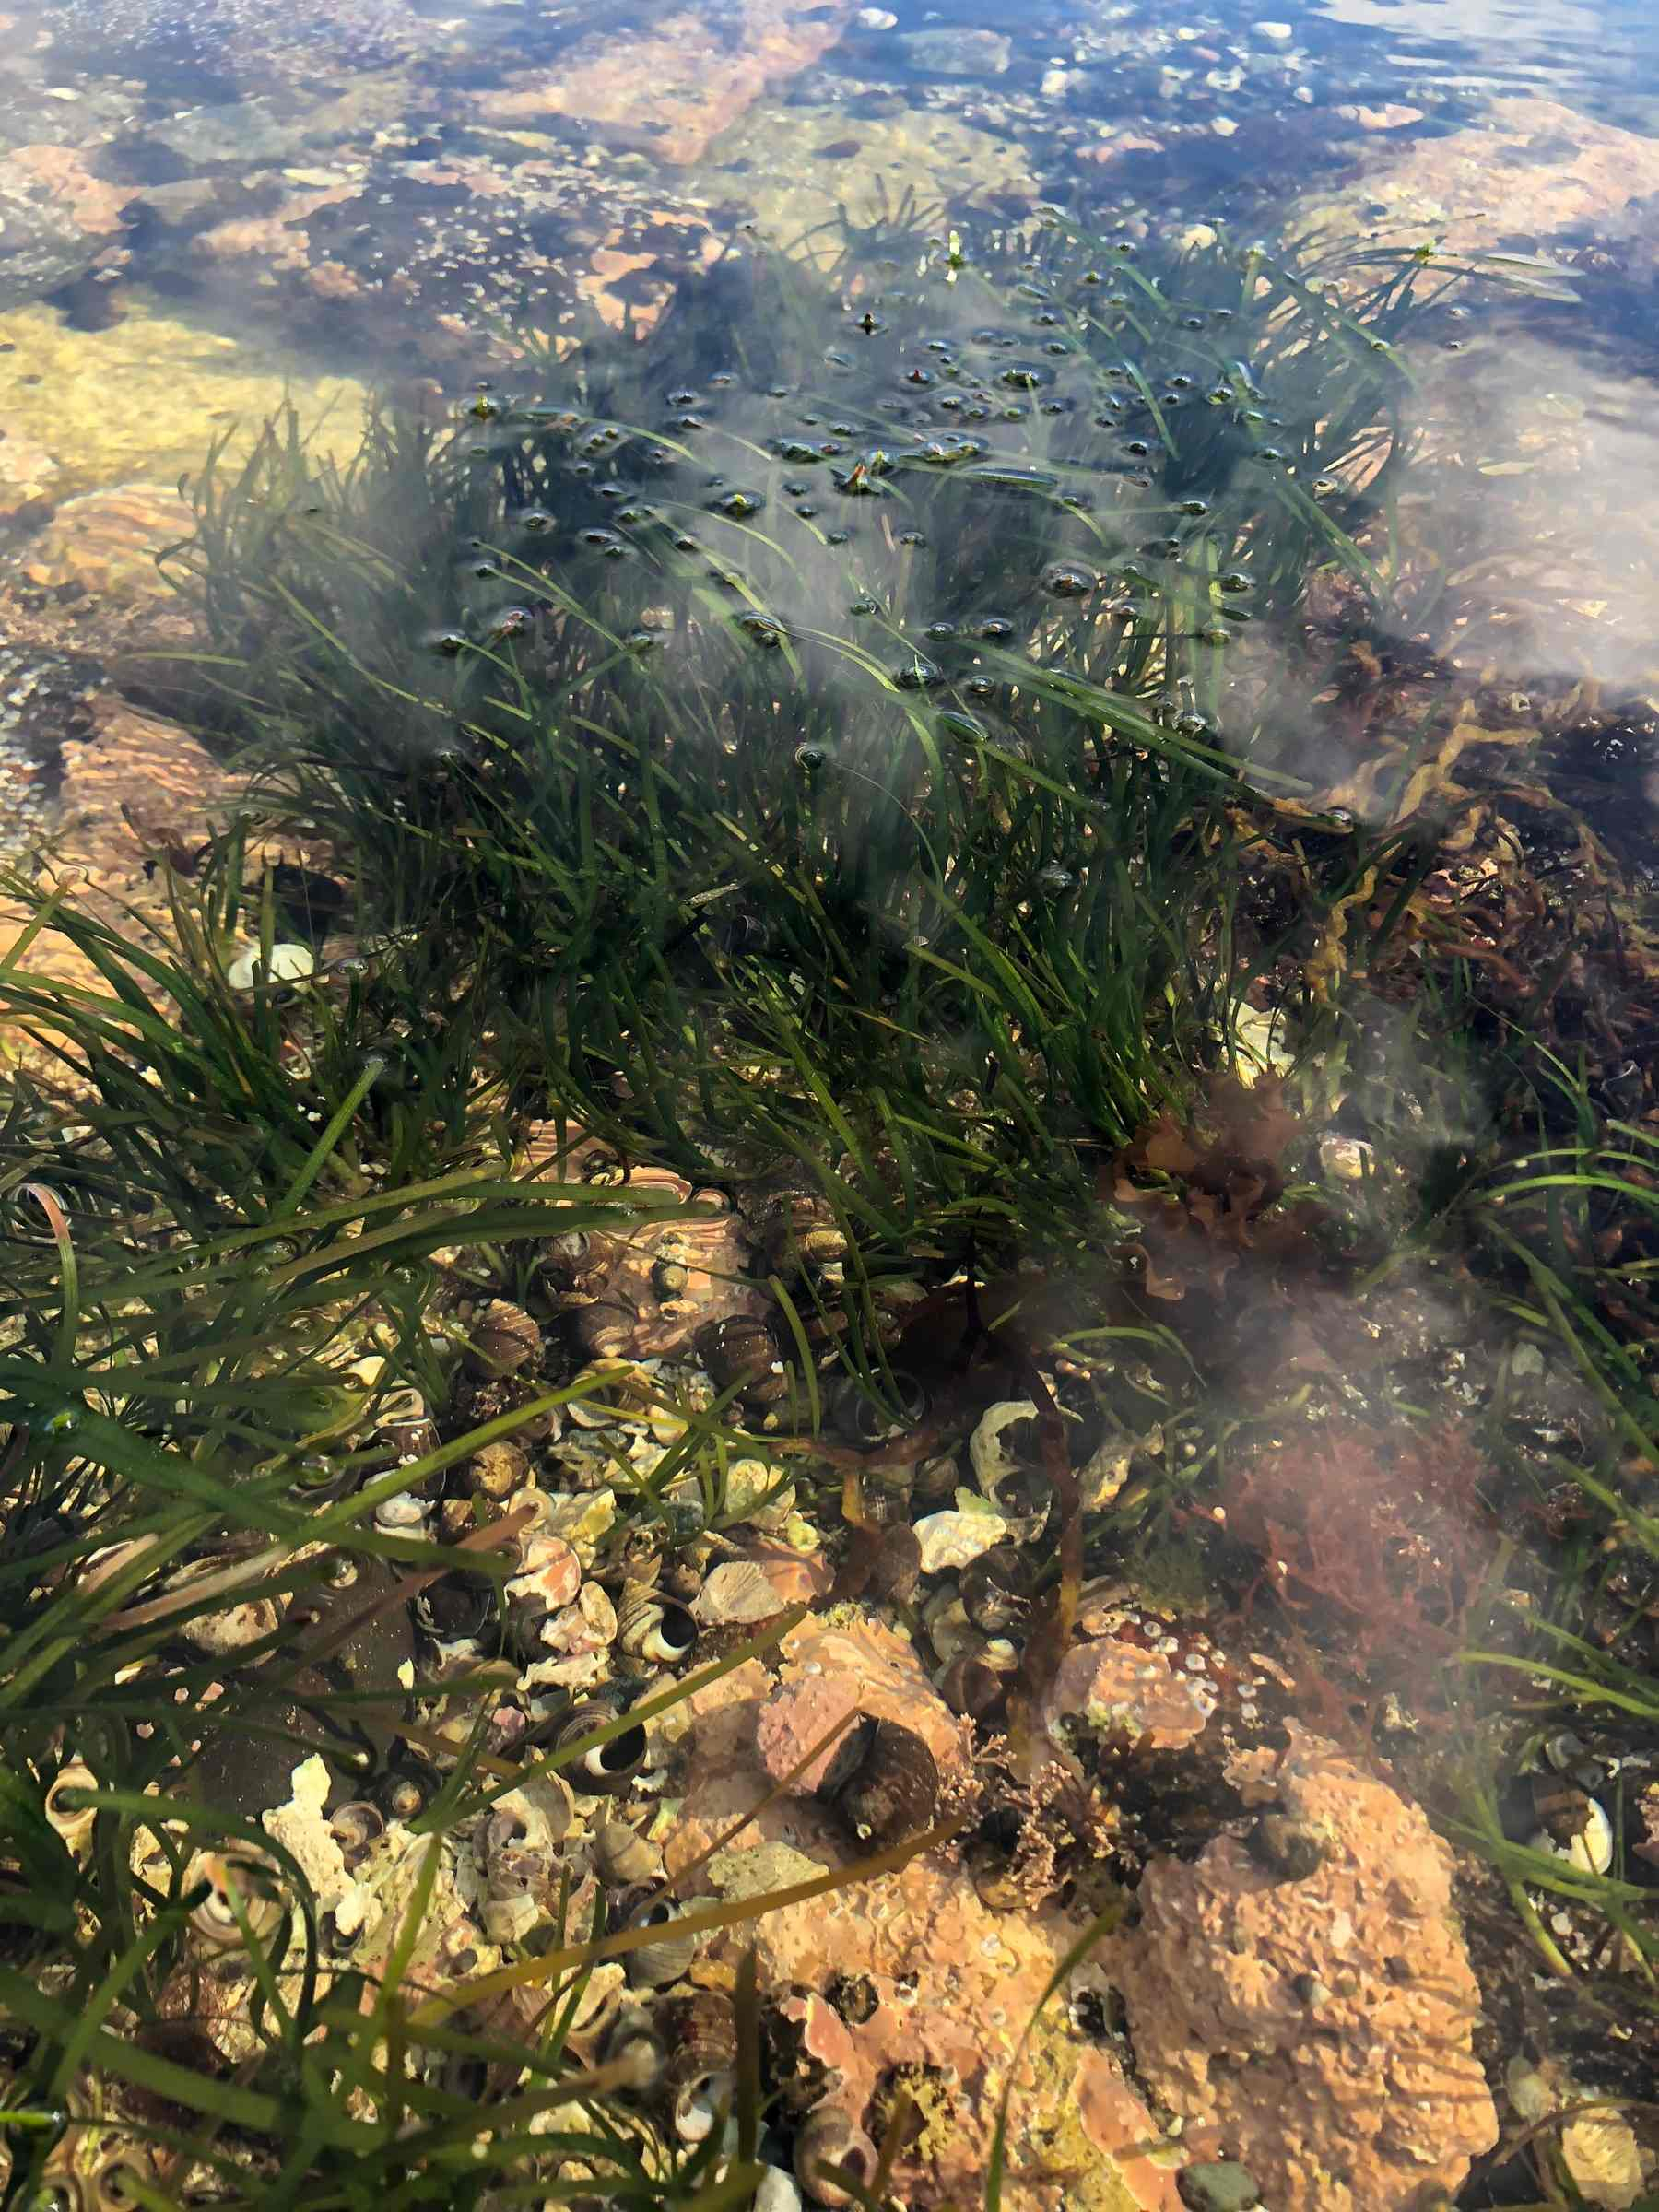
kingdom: Plantae
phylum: Tracheophyta
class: Liliopsida
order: Alismatales
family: Zosteraceae
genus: Zostera
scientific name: Zostera marina
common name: Eelgrass
